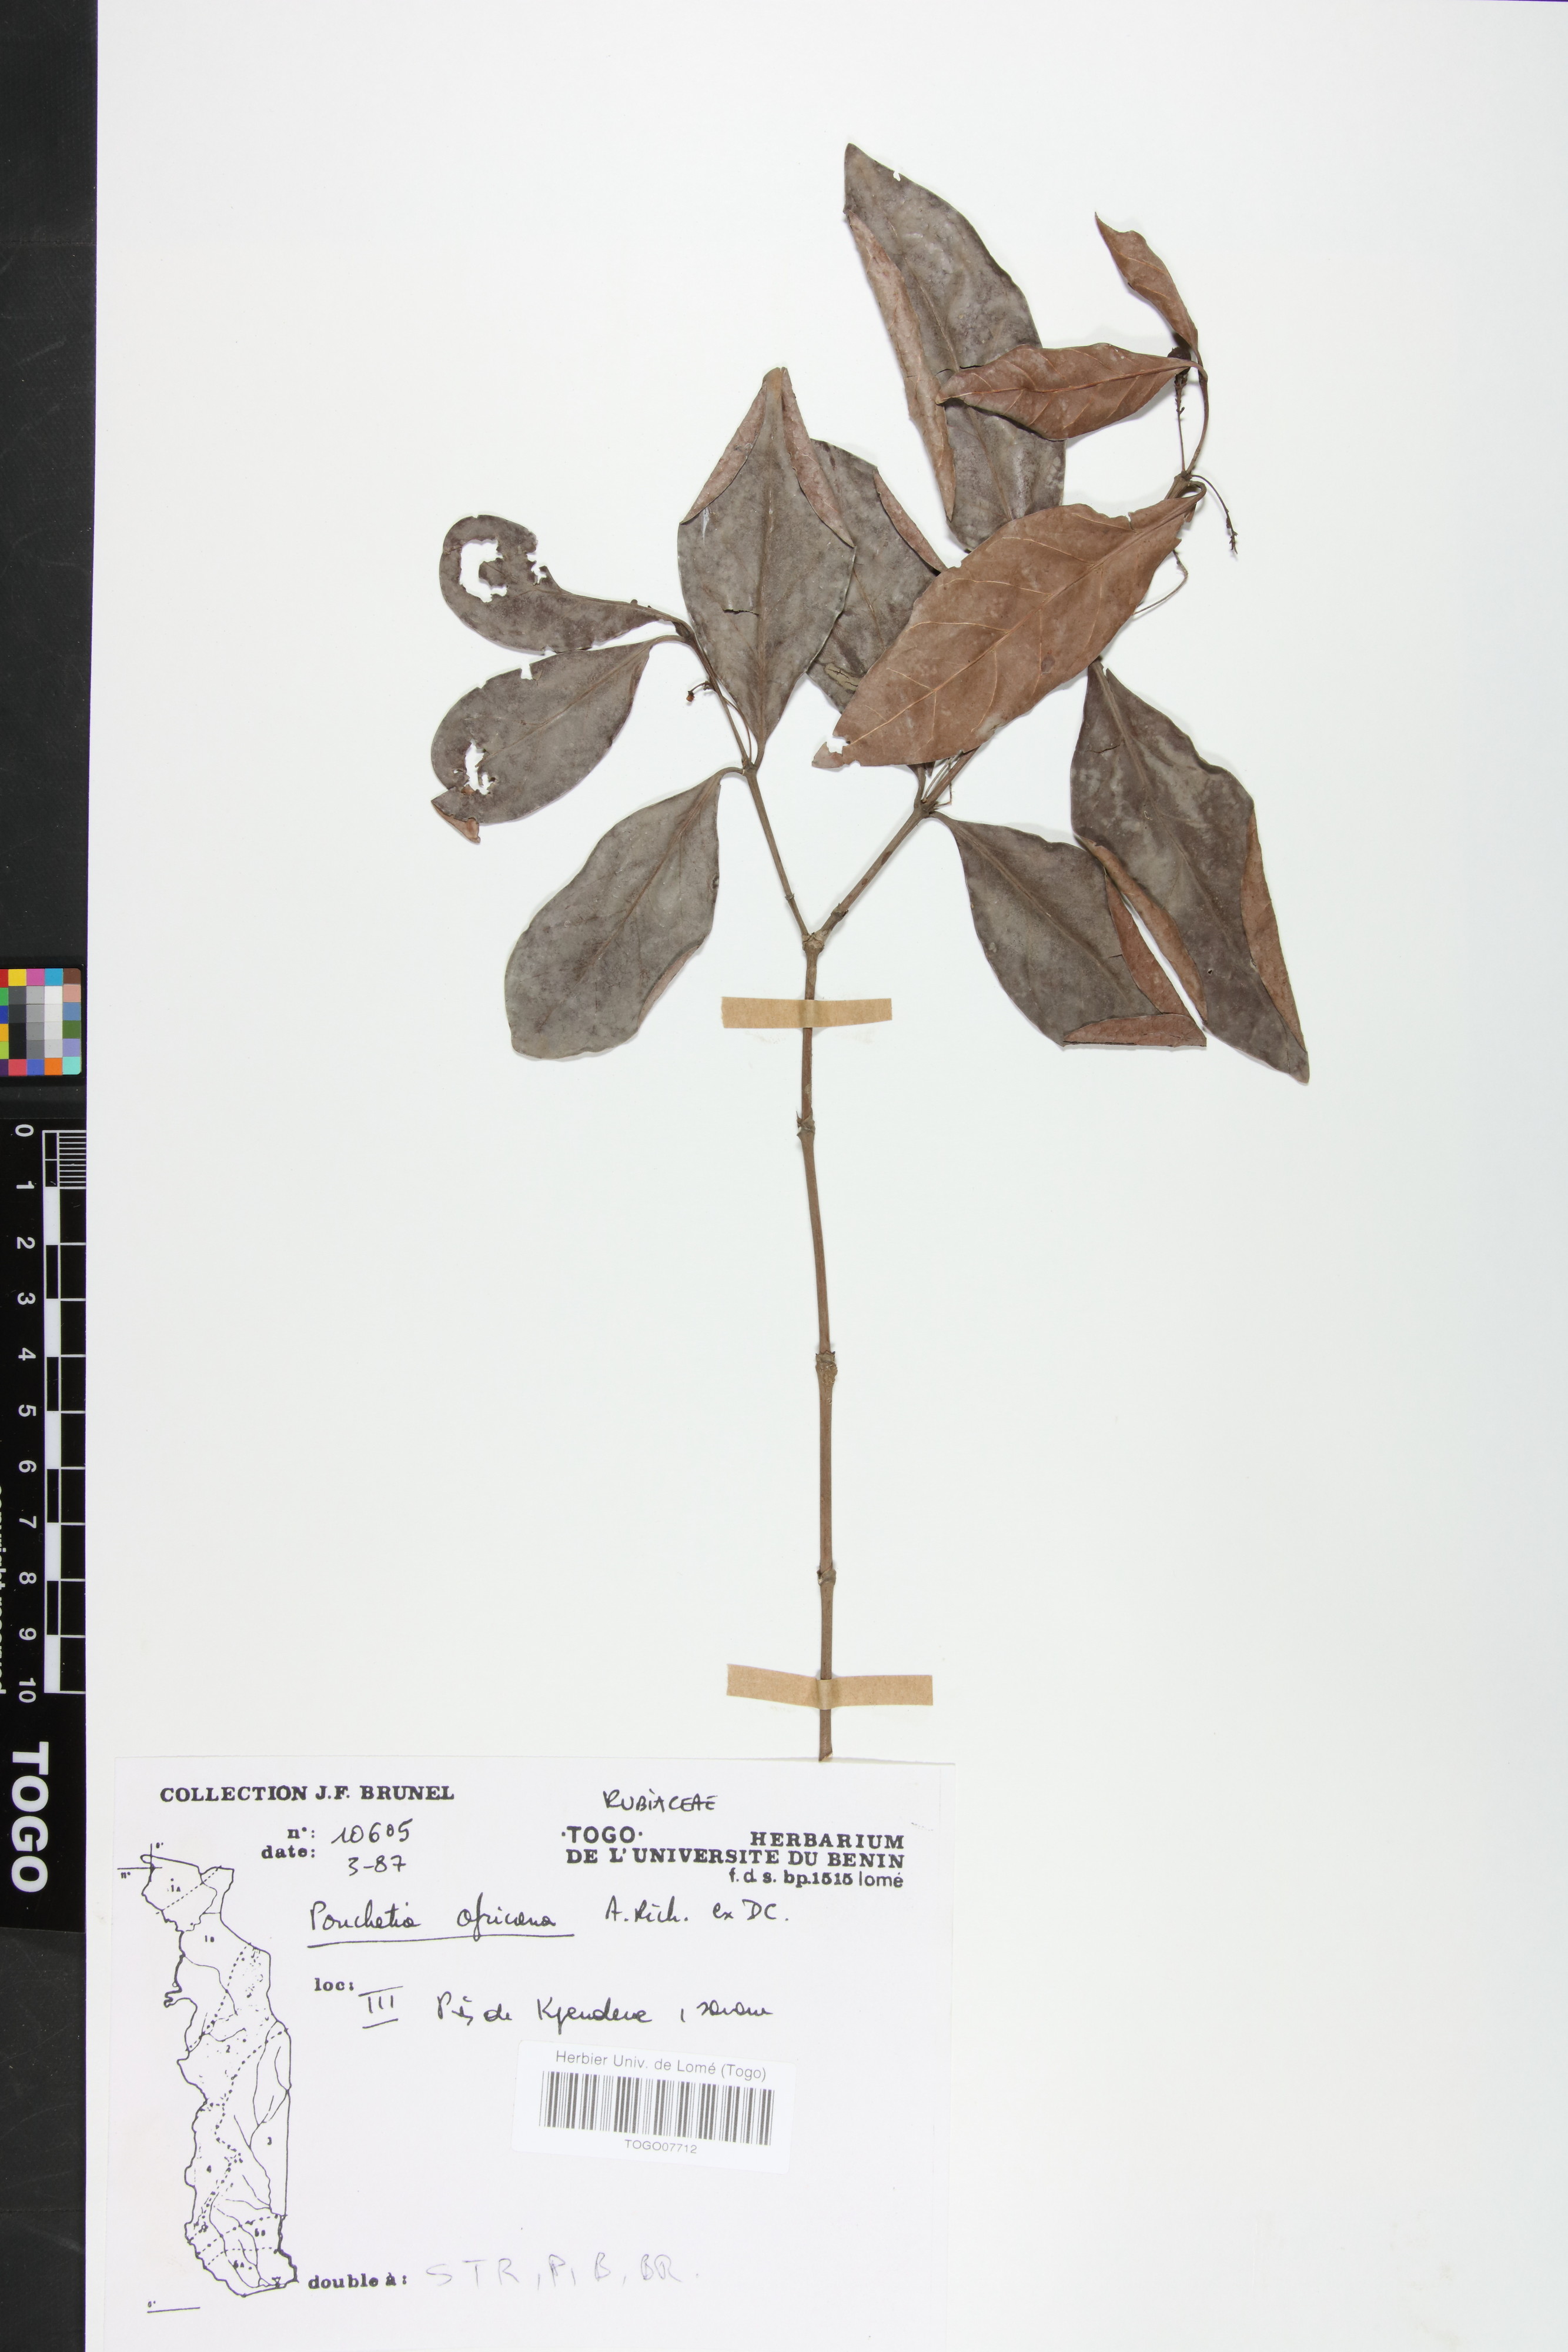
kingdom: Plantae
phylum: Tracheophyta
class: Magnoliopsida
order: Gentianales
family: Rubiaceae
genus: Pouchetia
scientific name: Pouchetia africana
